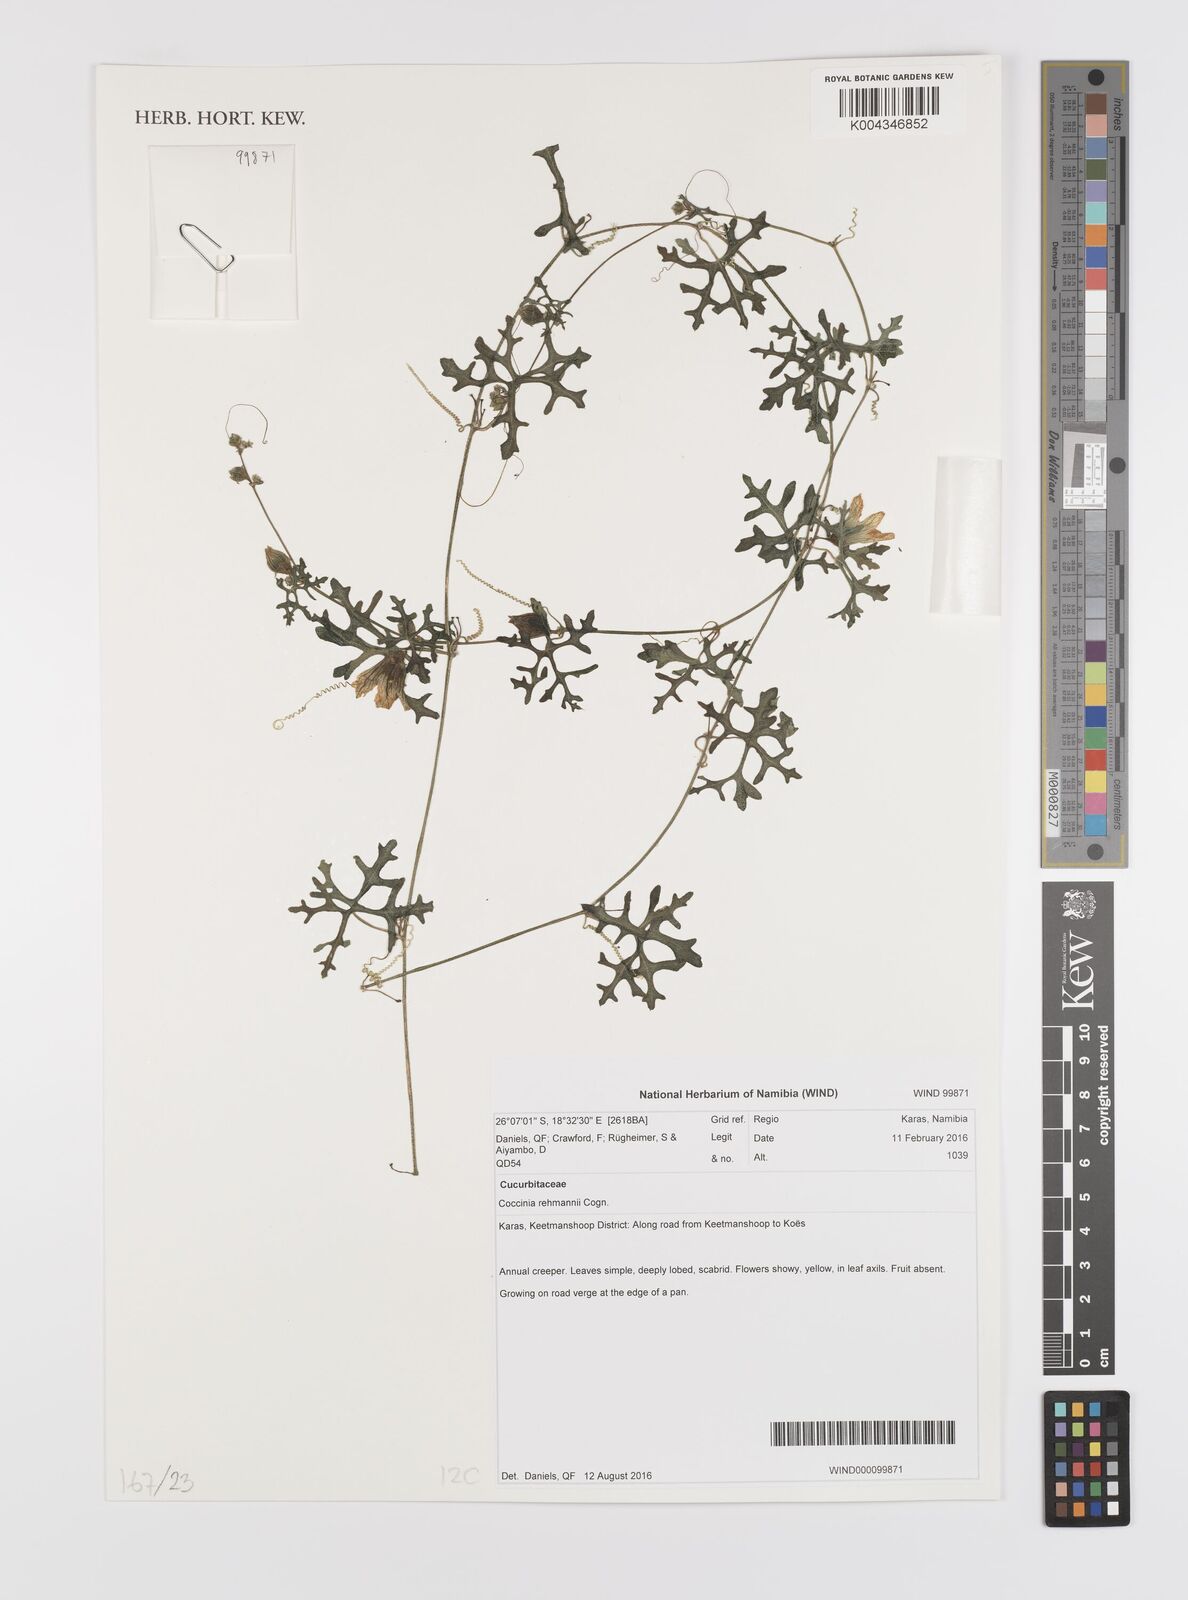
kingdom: Plantae
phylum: Tracheophyta
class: Magnoliopsida
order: Cucurbitales
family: Cucurbitaceae
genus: Coccinia
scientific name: Coccinia rehmannii
